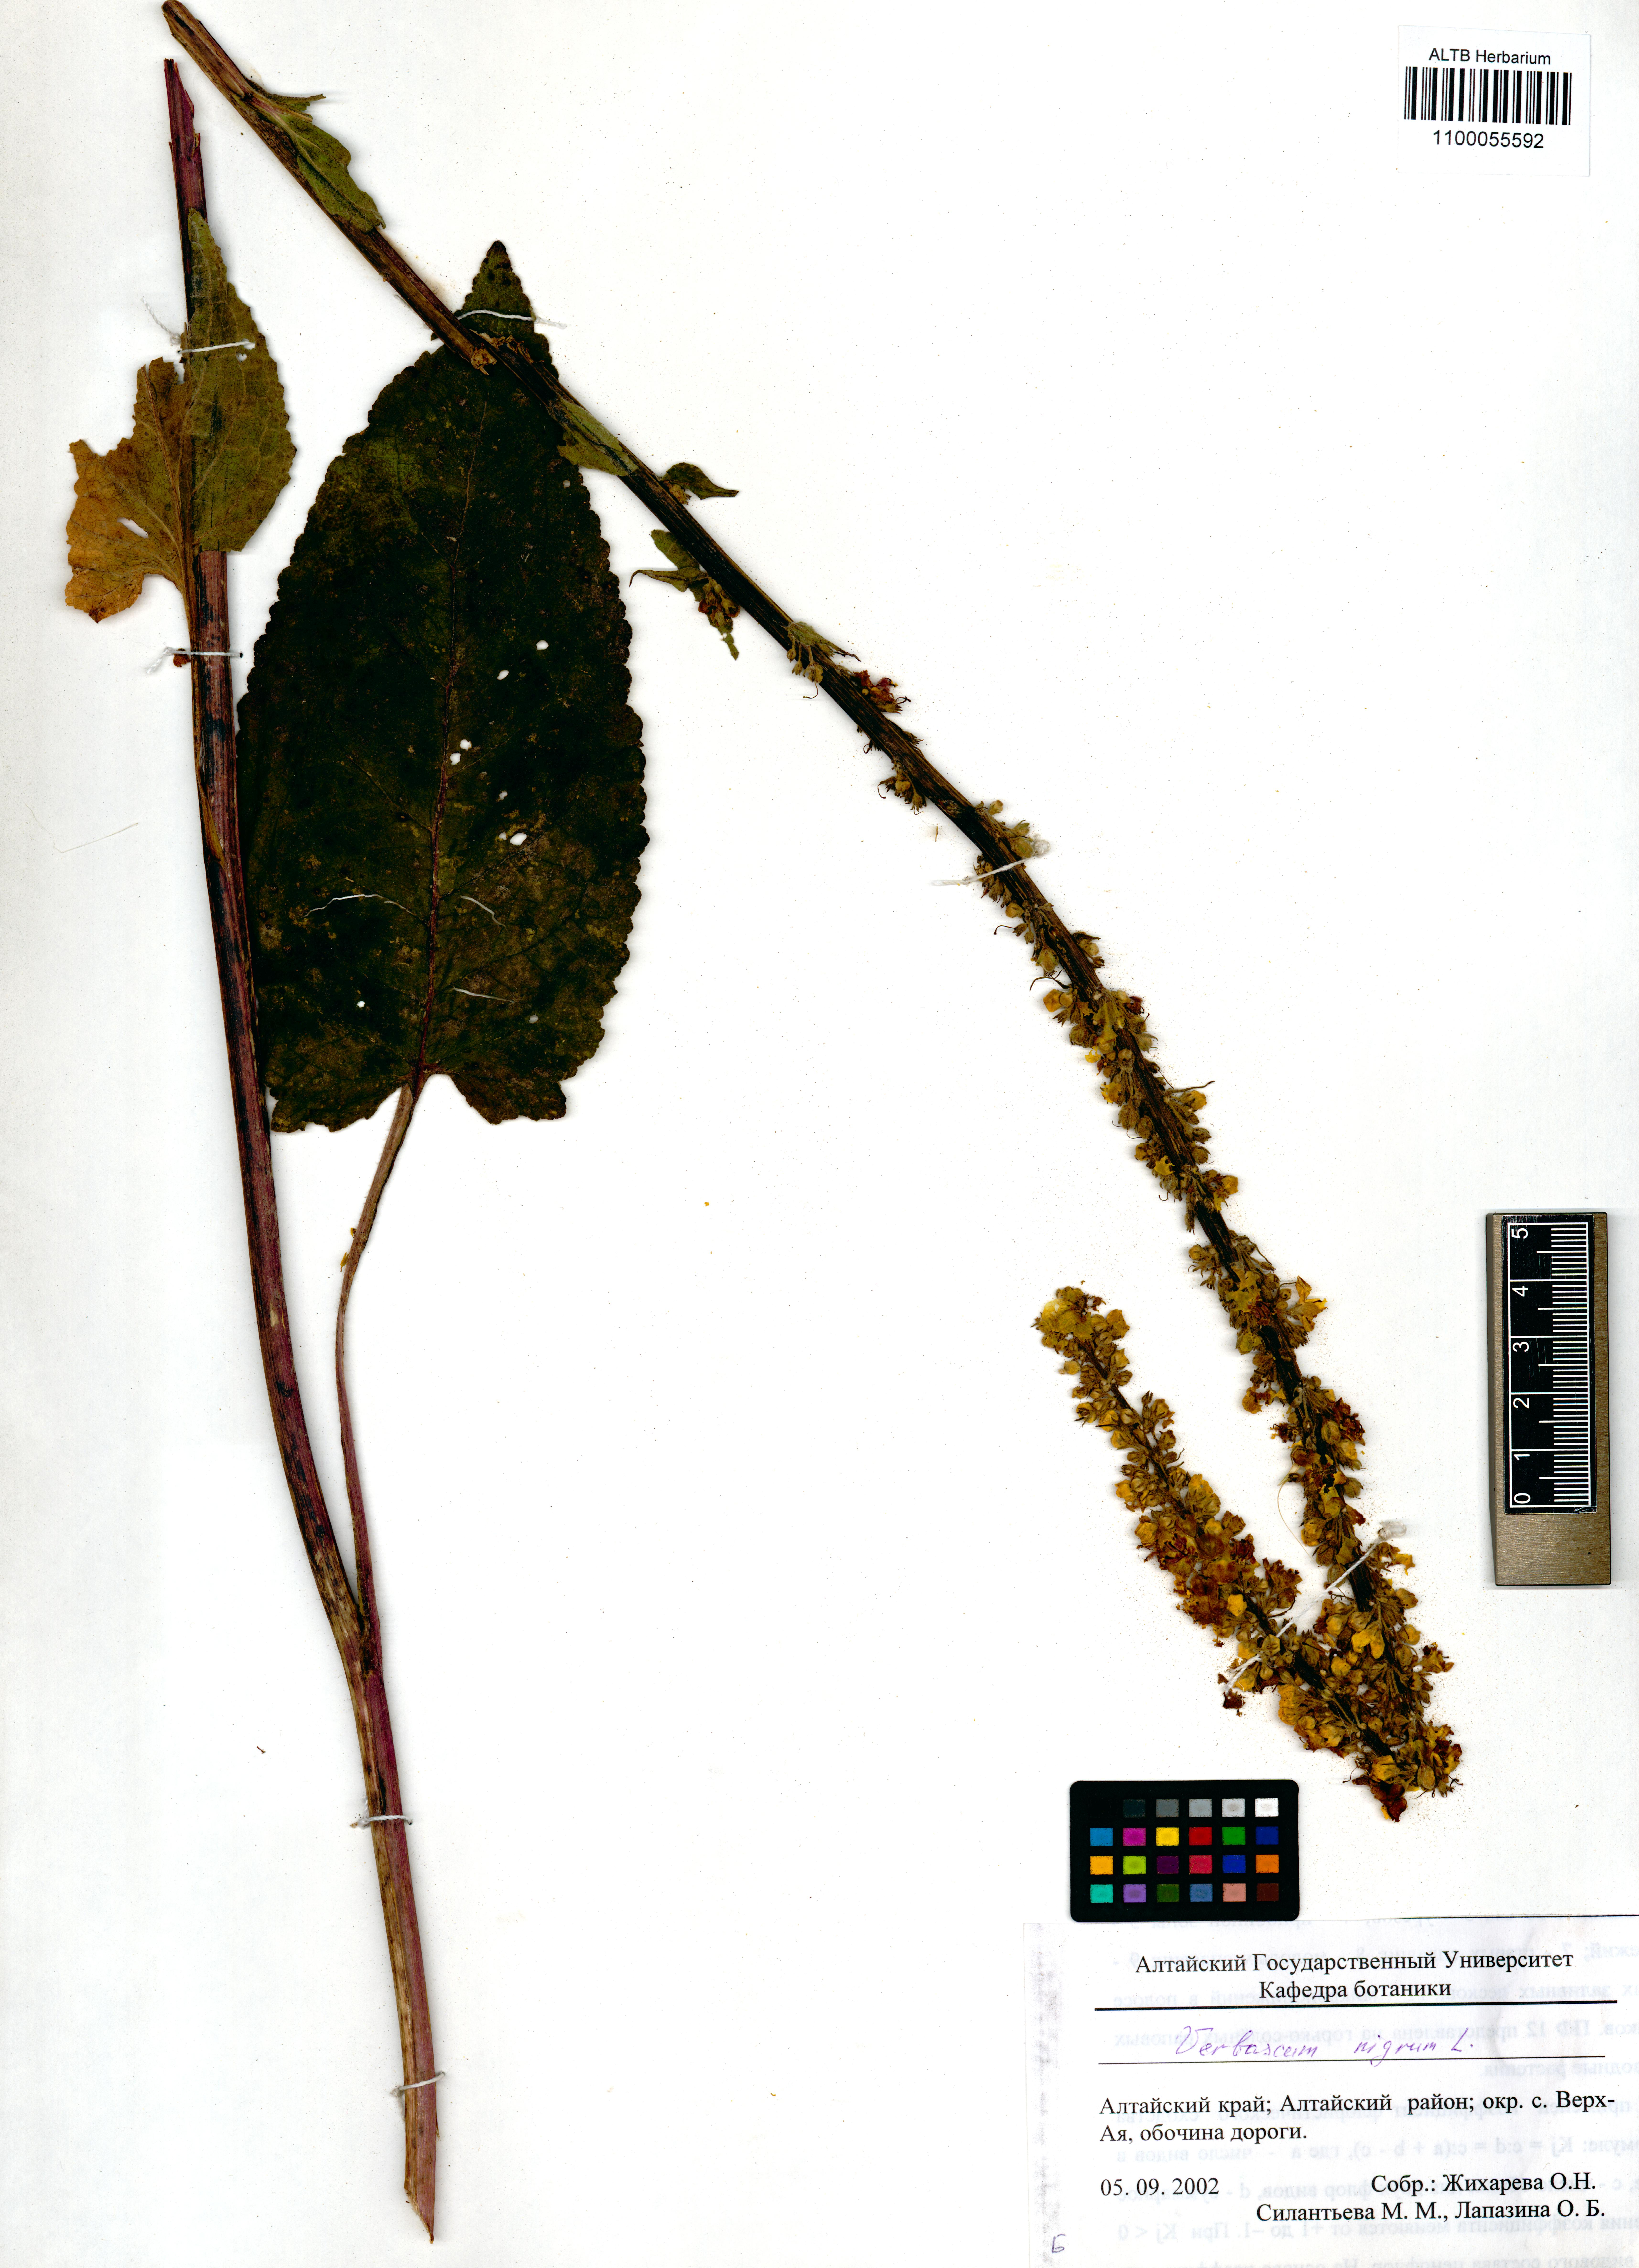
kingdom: Plantae
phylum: Tracheophyta
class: Magnoliopsida
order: Lamiales
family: Scrophulariaceae
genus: Verbascum
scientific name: Verbascum nigrum
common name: Dark mullein
